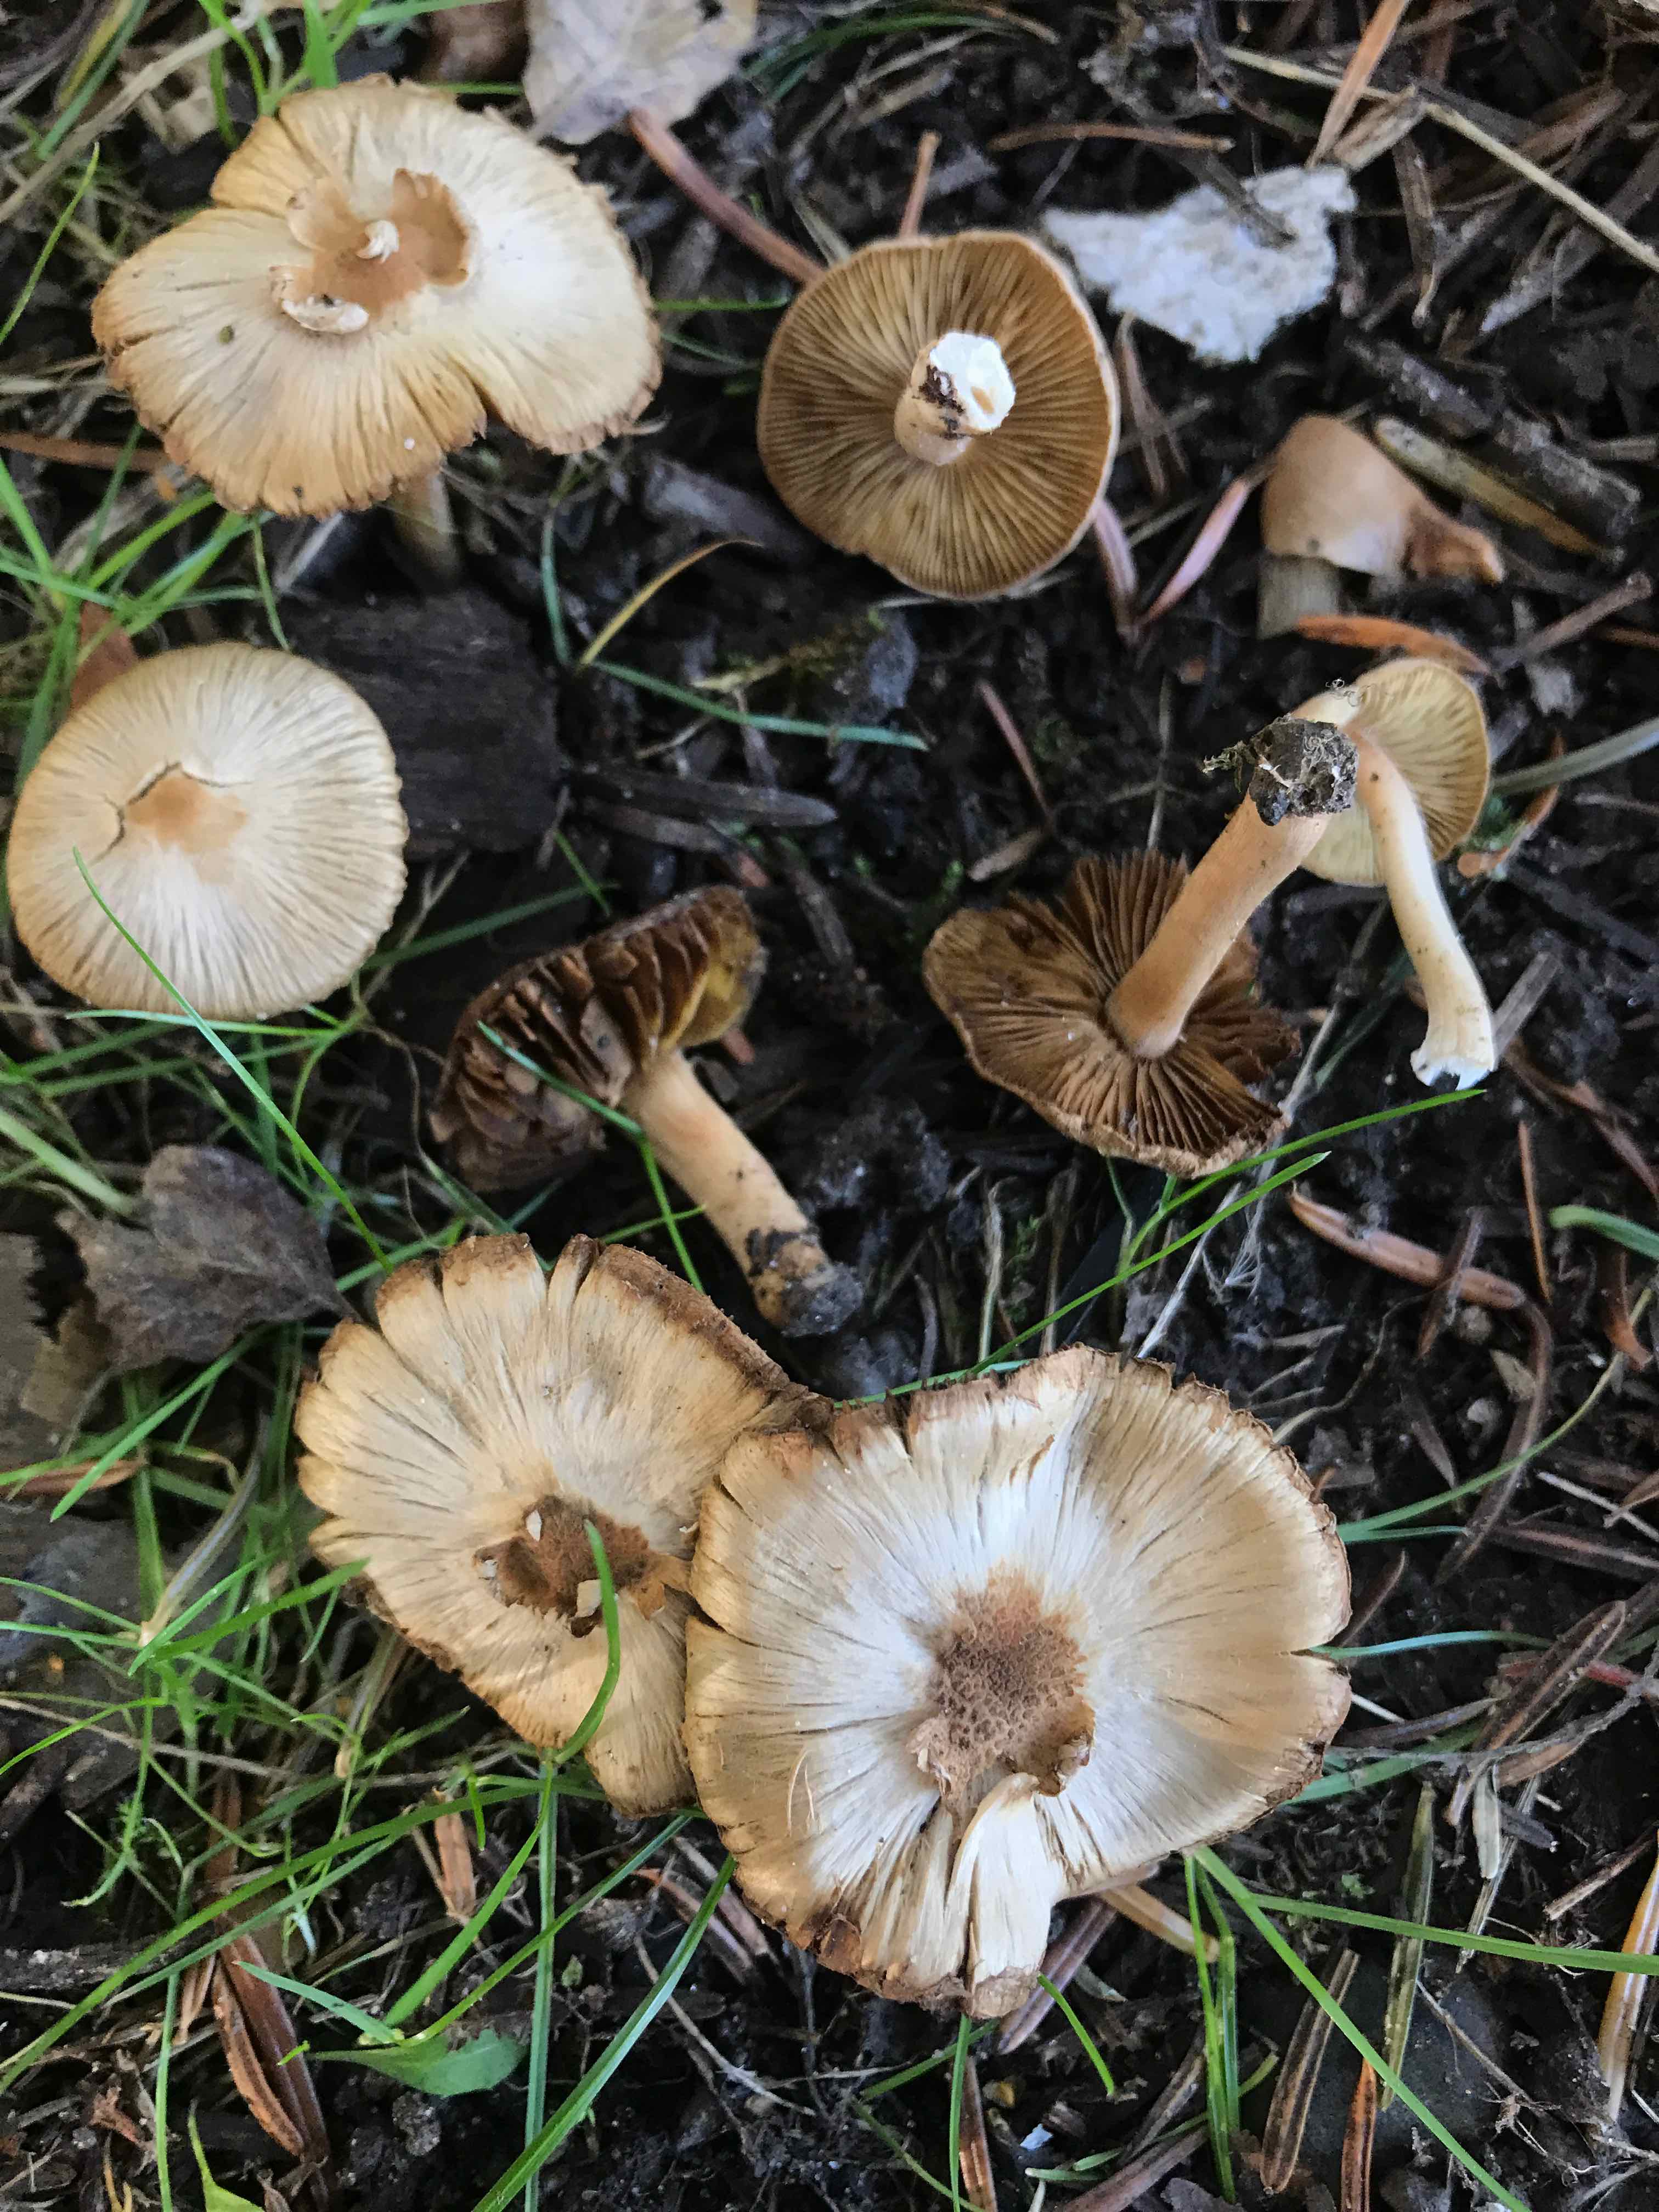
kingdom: Fungi
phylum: Basidiomycota
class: Agaricomycetes
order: Agaricales
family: Inocybaceae
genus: Inocybe
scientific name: Inocybe
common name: trævlhat
